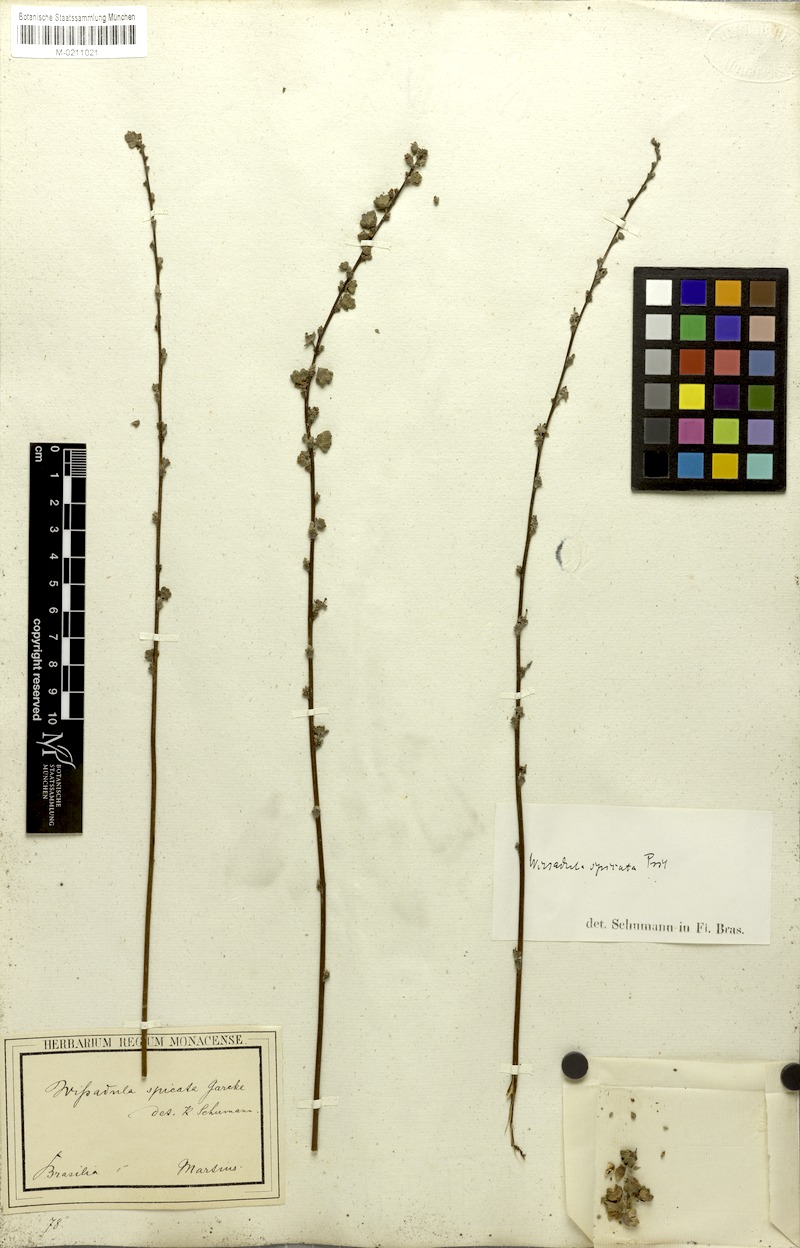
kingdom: Plantae
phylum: Tracheophyta
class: Magnoliopsida
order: Malvales
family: Malvaceae
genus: Allobriquetia
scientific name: Allobriquetia spicata
